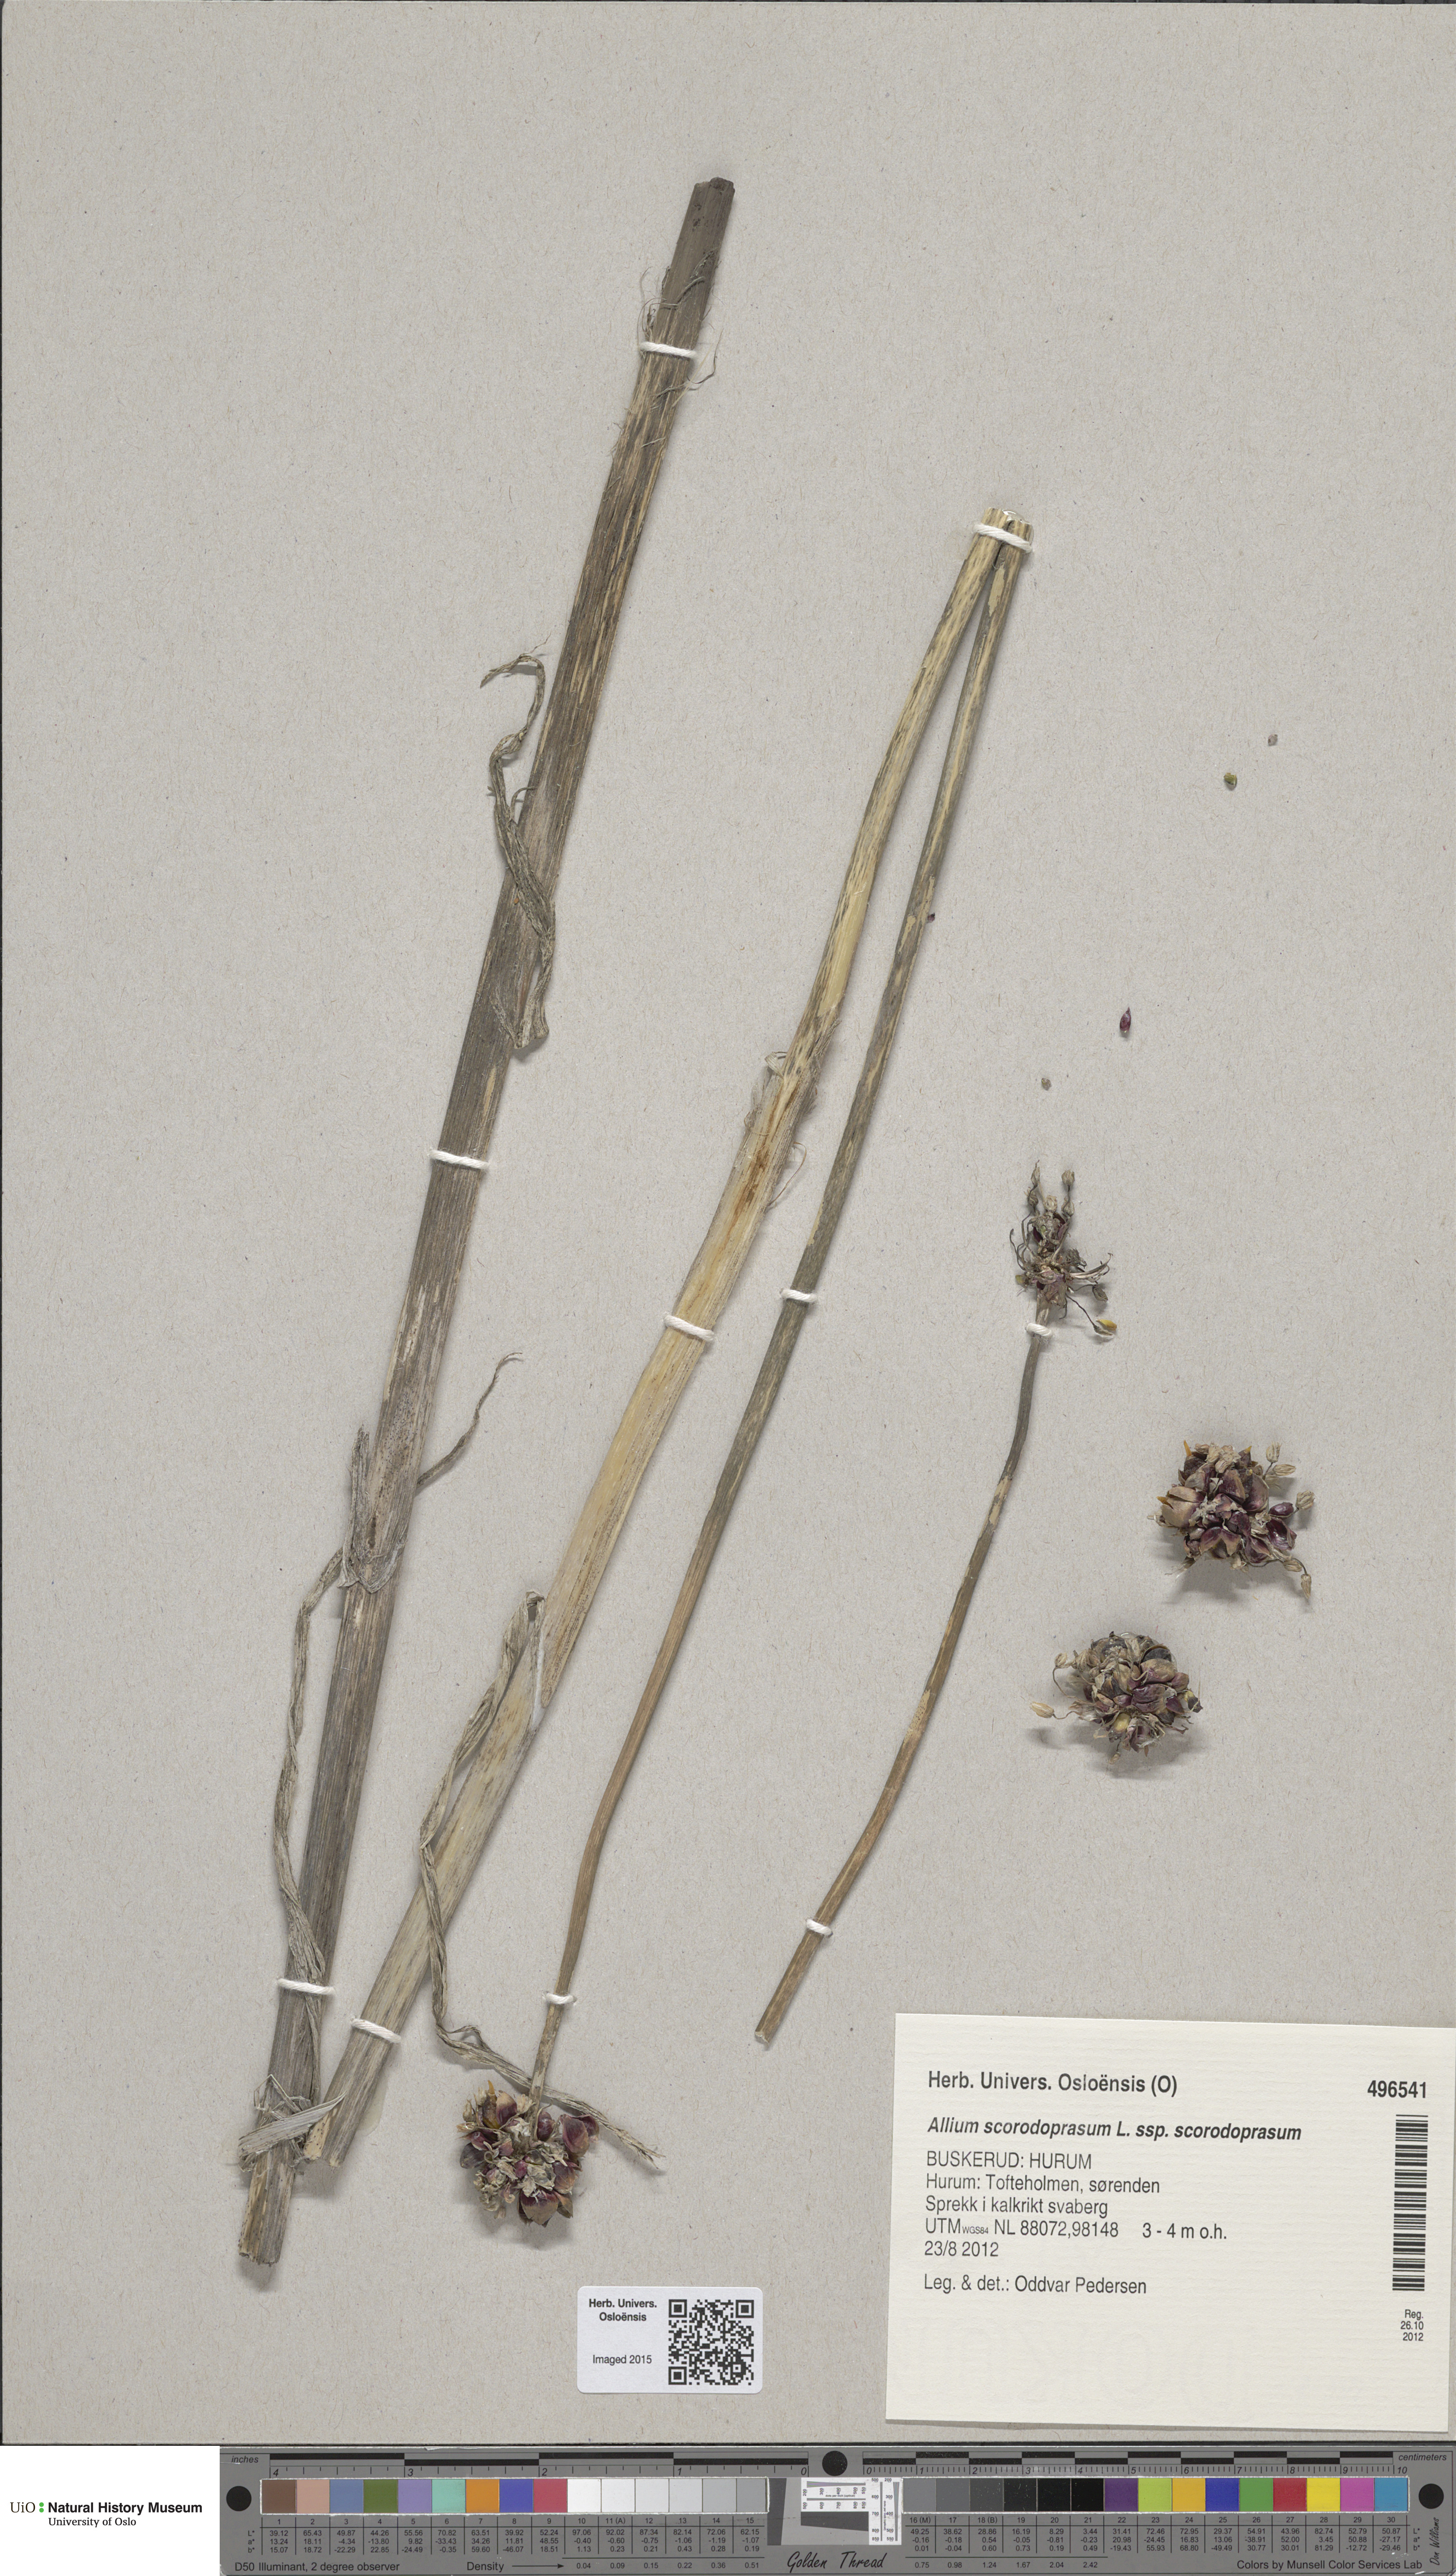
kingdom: Plantae
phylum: Tracheophyta
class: Liliopsida
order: Asparagales
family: Amaryllidaceae
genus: Allium
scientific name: Allium scorodoprasum
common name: Sand leek
